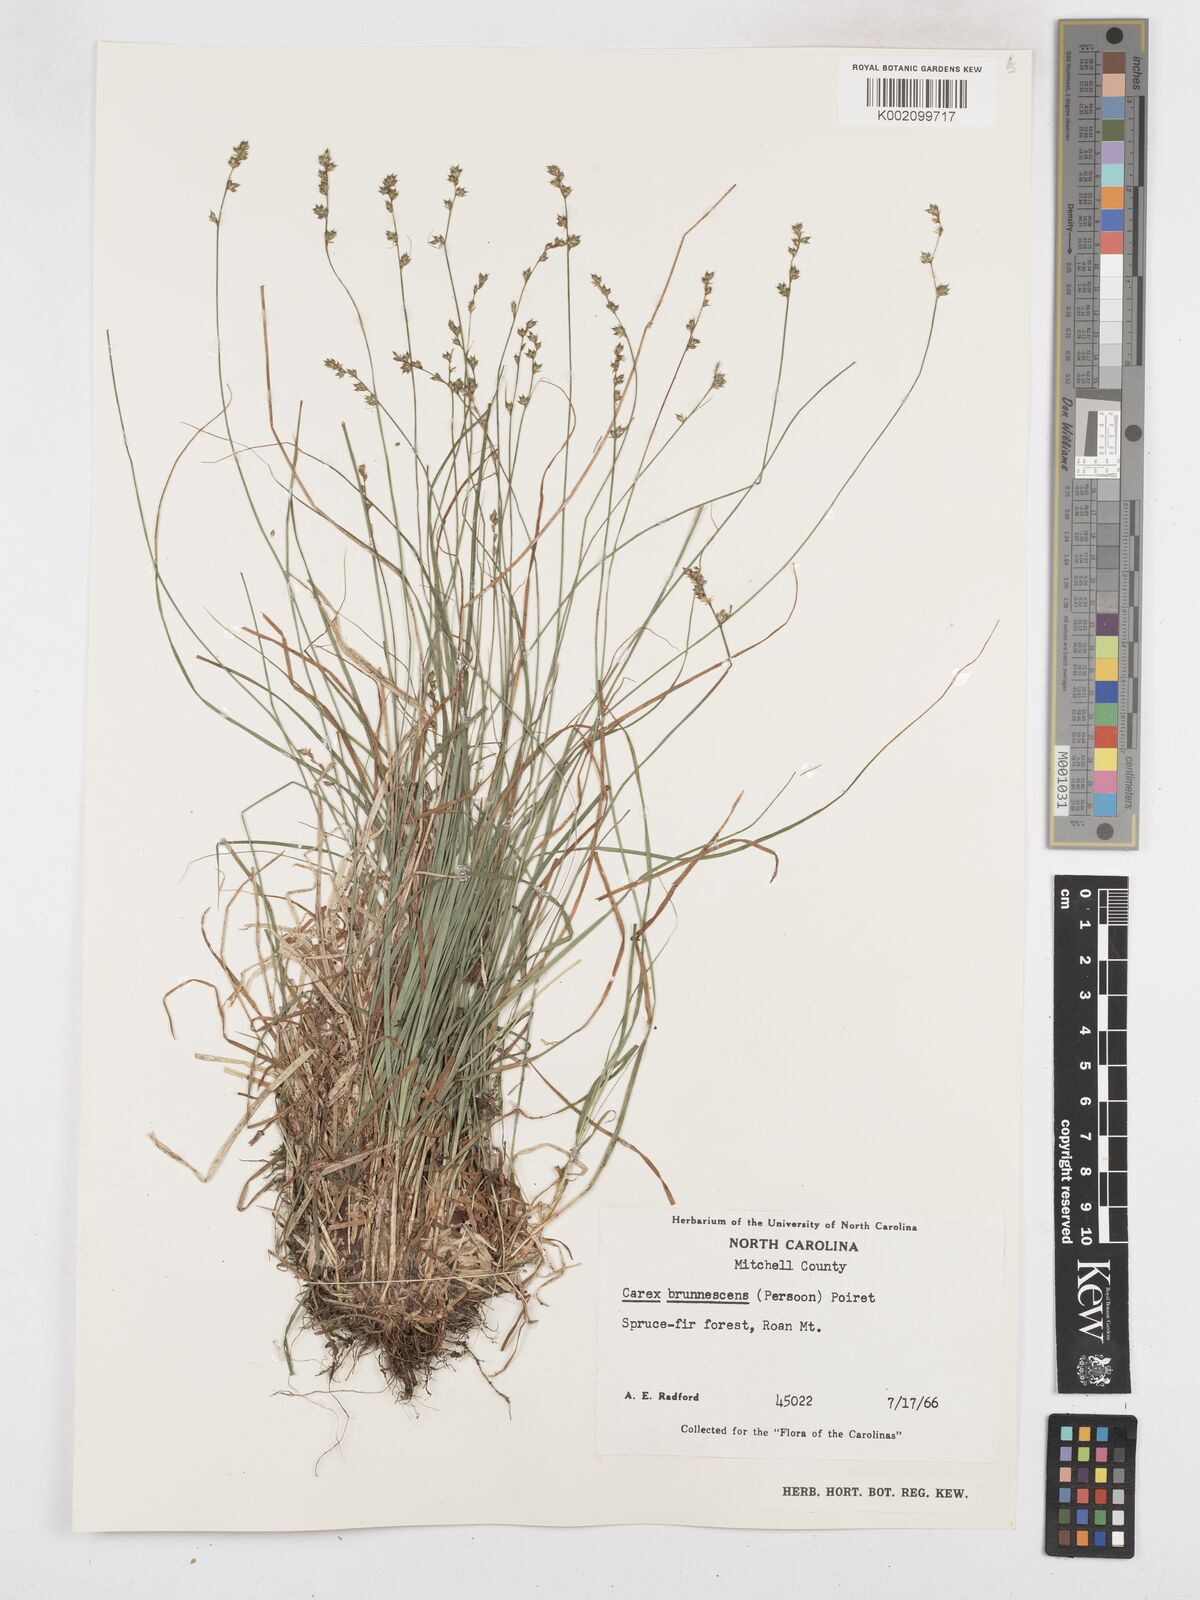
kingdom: Plantae
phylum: Tracheophyta
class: Liliopsida
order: Poales
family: Cyperaceae
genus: Carex
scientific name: Carex brunnescens
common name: Brown sedge
